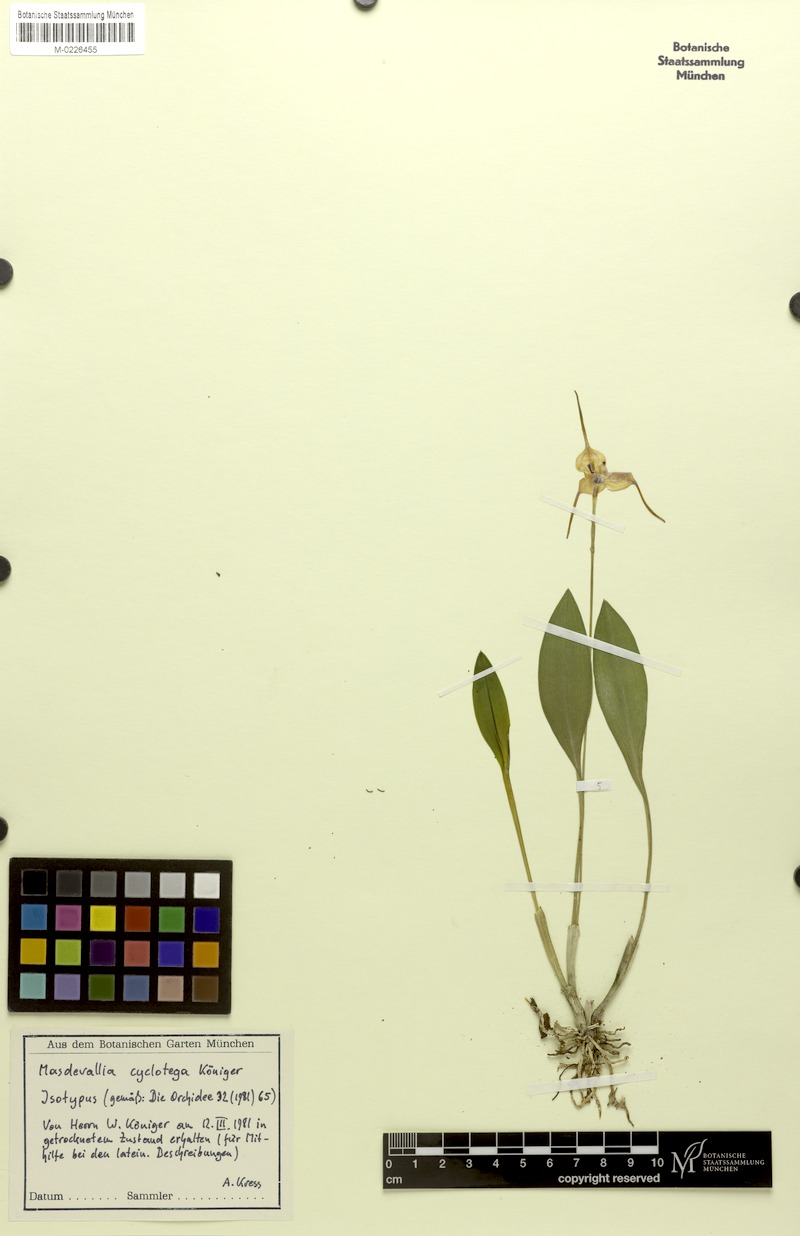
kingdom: Plantae
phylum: Tracheophyta
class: Liliopsida
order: Asparagales
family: Orchidaceae
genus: Masdevallia
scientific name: Masdevallia cyclotega
